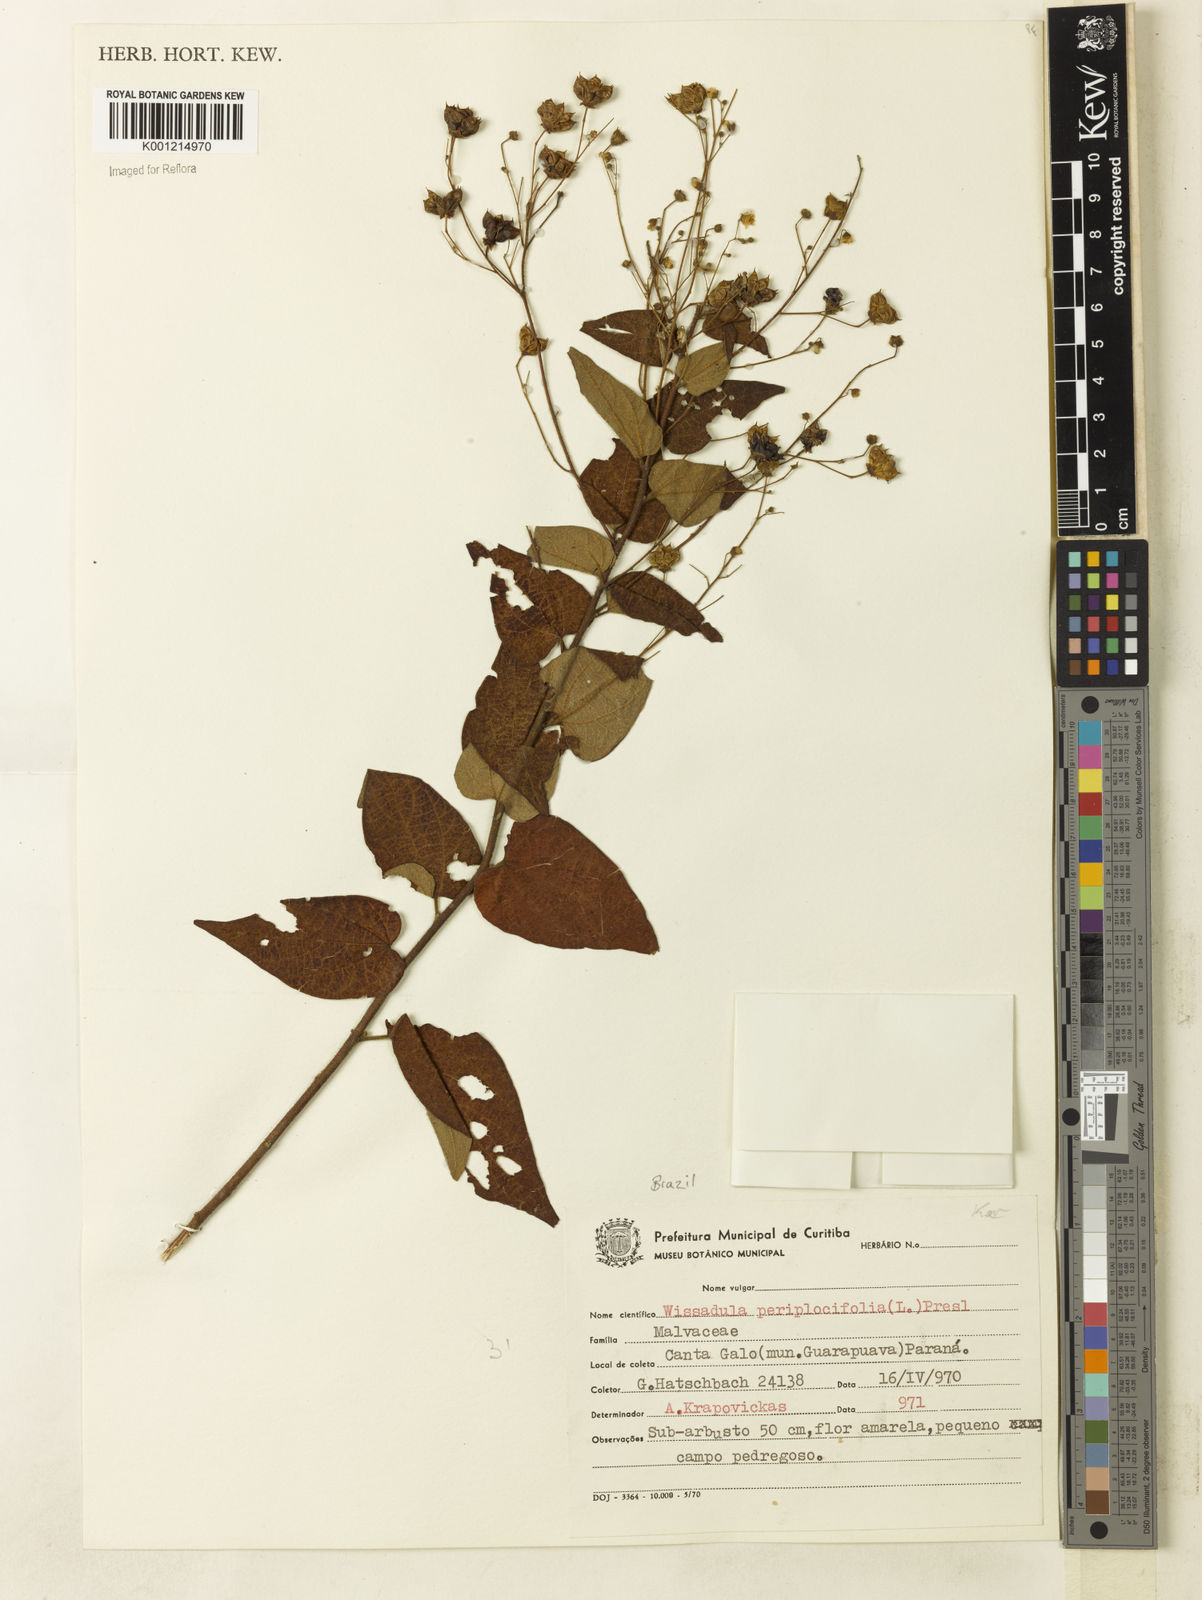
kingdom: Plantae
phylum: Tracheophyta
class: Magnoliopsida
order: Malvales
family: Malvaceae
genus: Wissadula
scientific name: Wissadula periplocifolia
